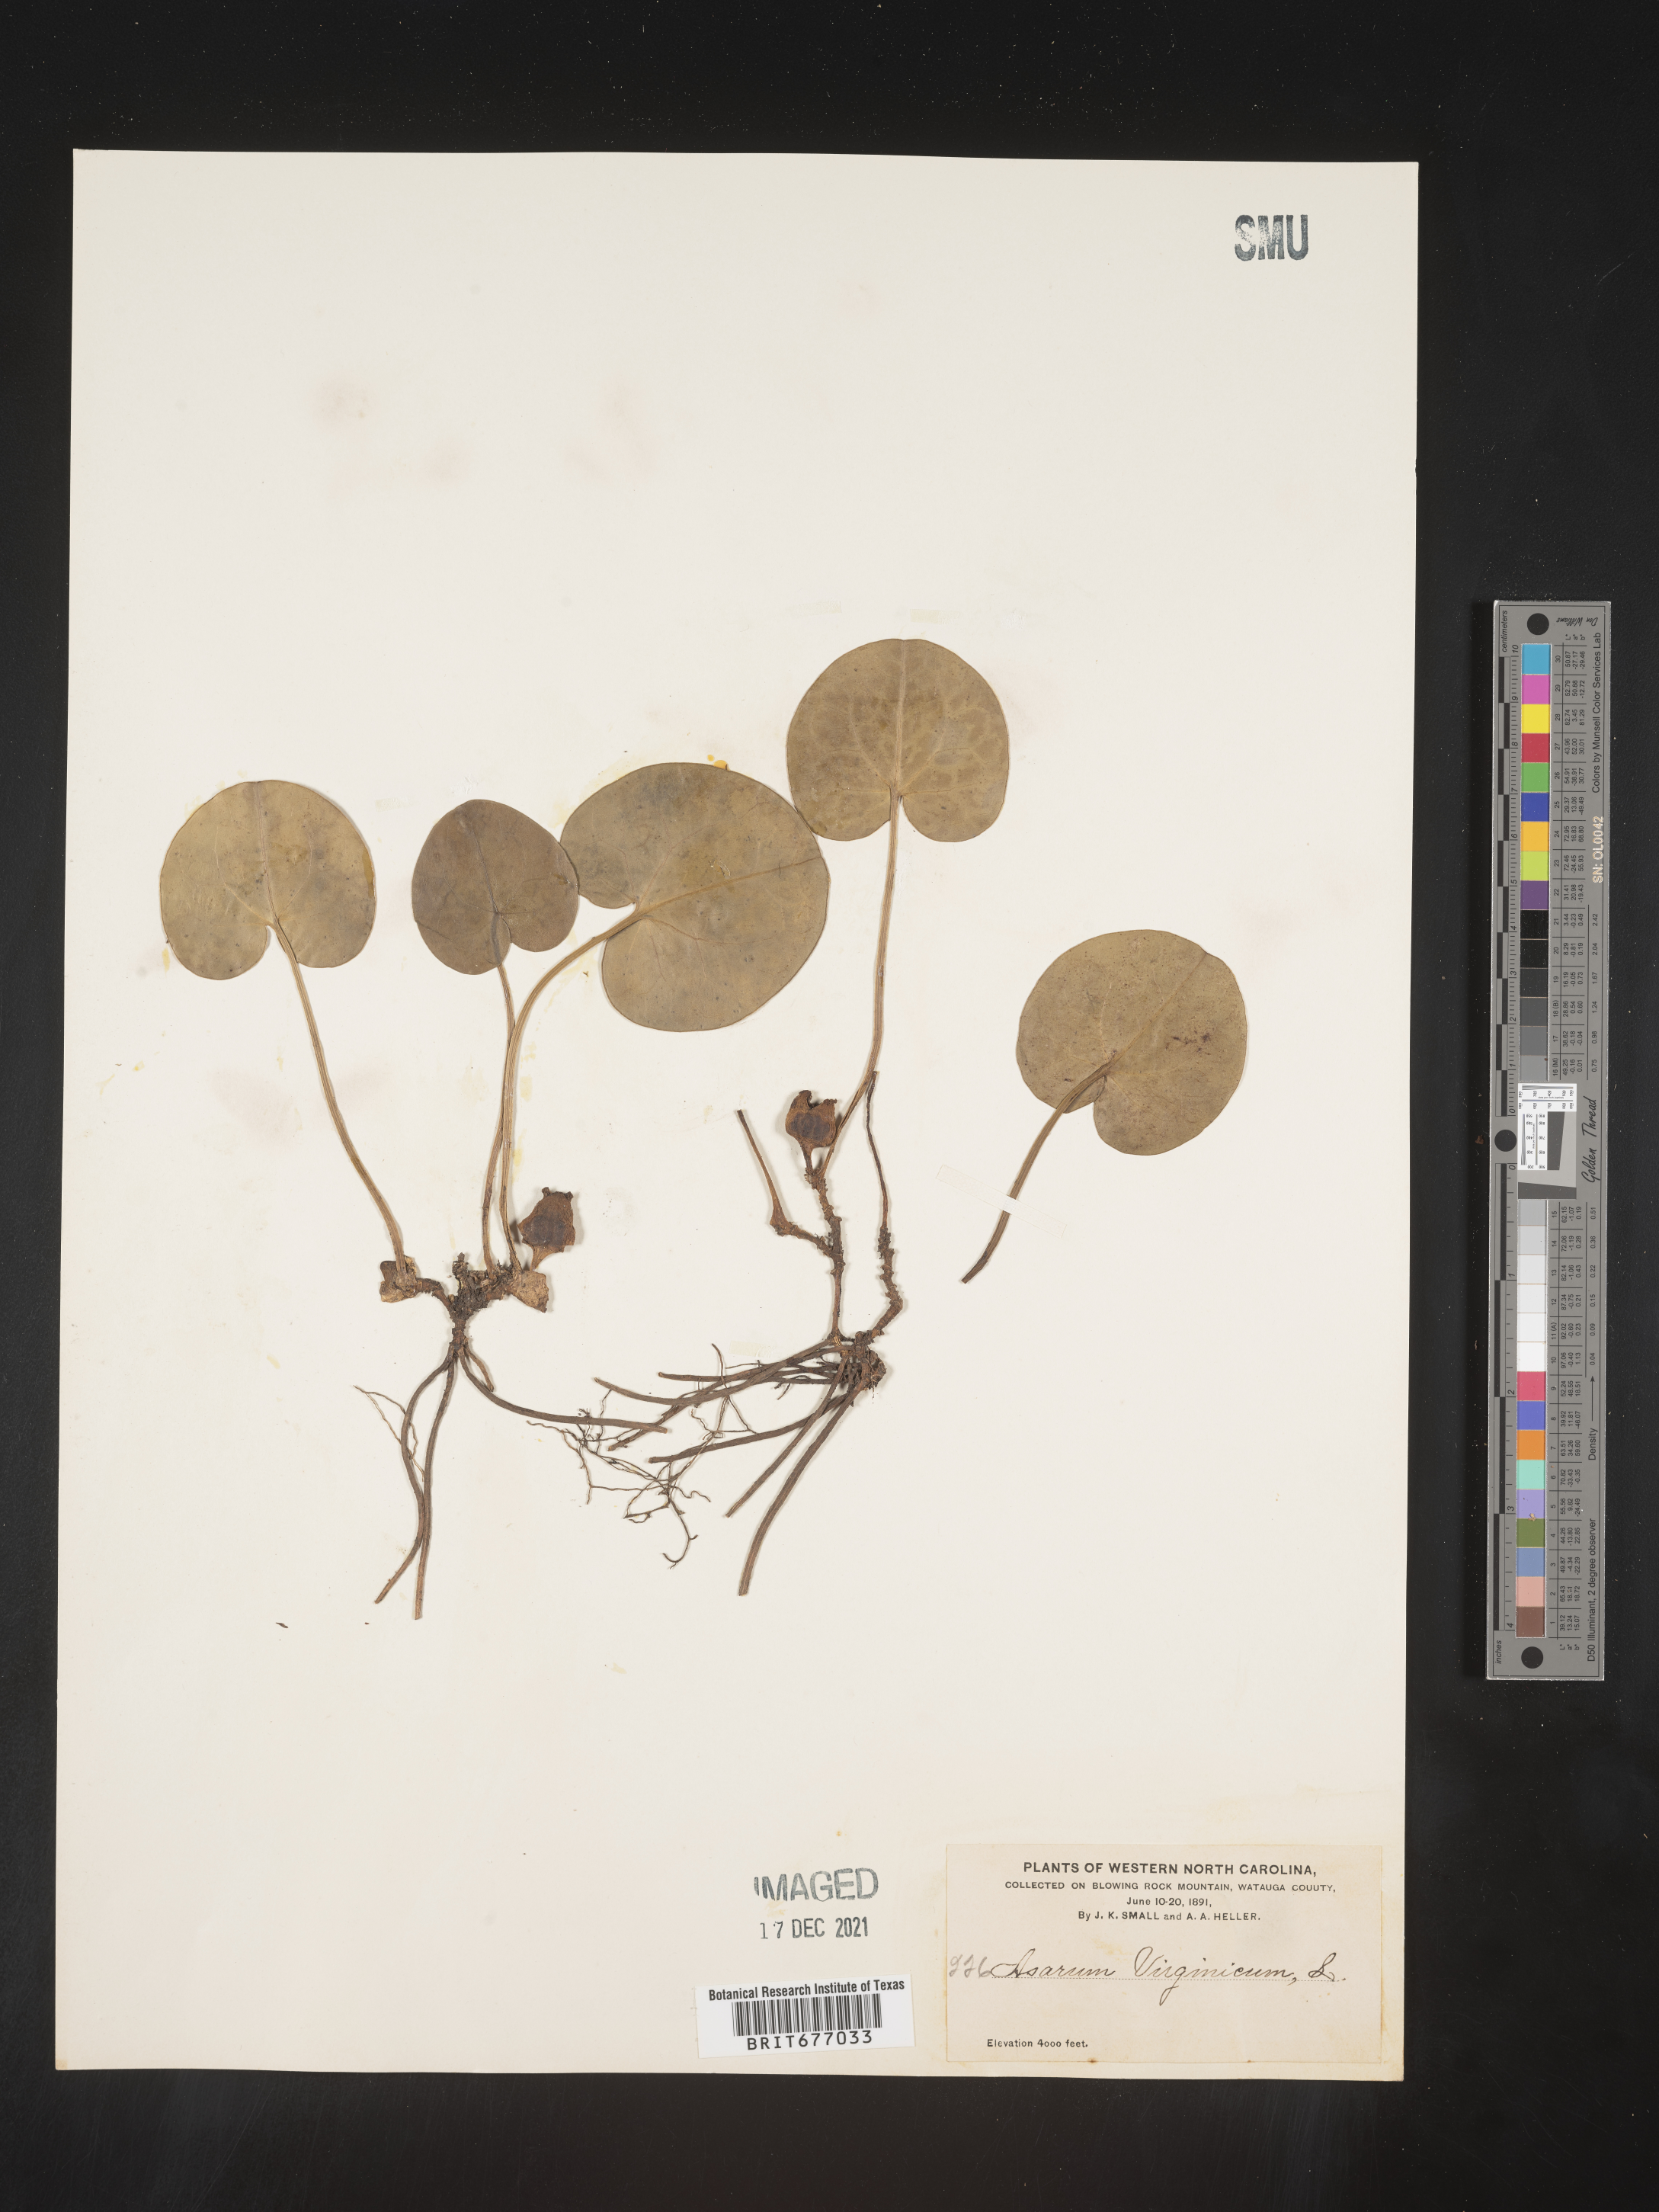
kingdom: Plantae
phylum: Tracheophyta
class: Magnoliopsida
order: Piperales
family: Aristolochiaceae
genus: Asarum
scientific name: Asarum
